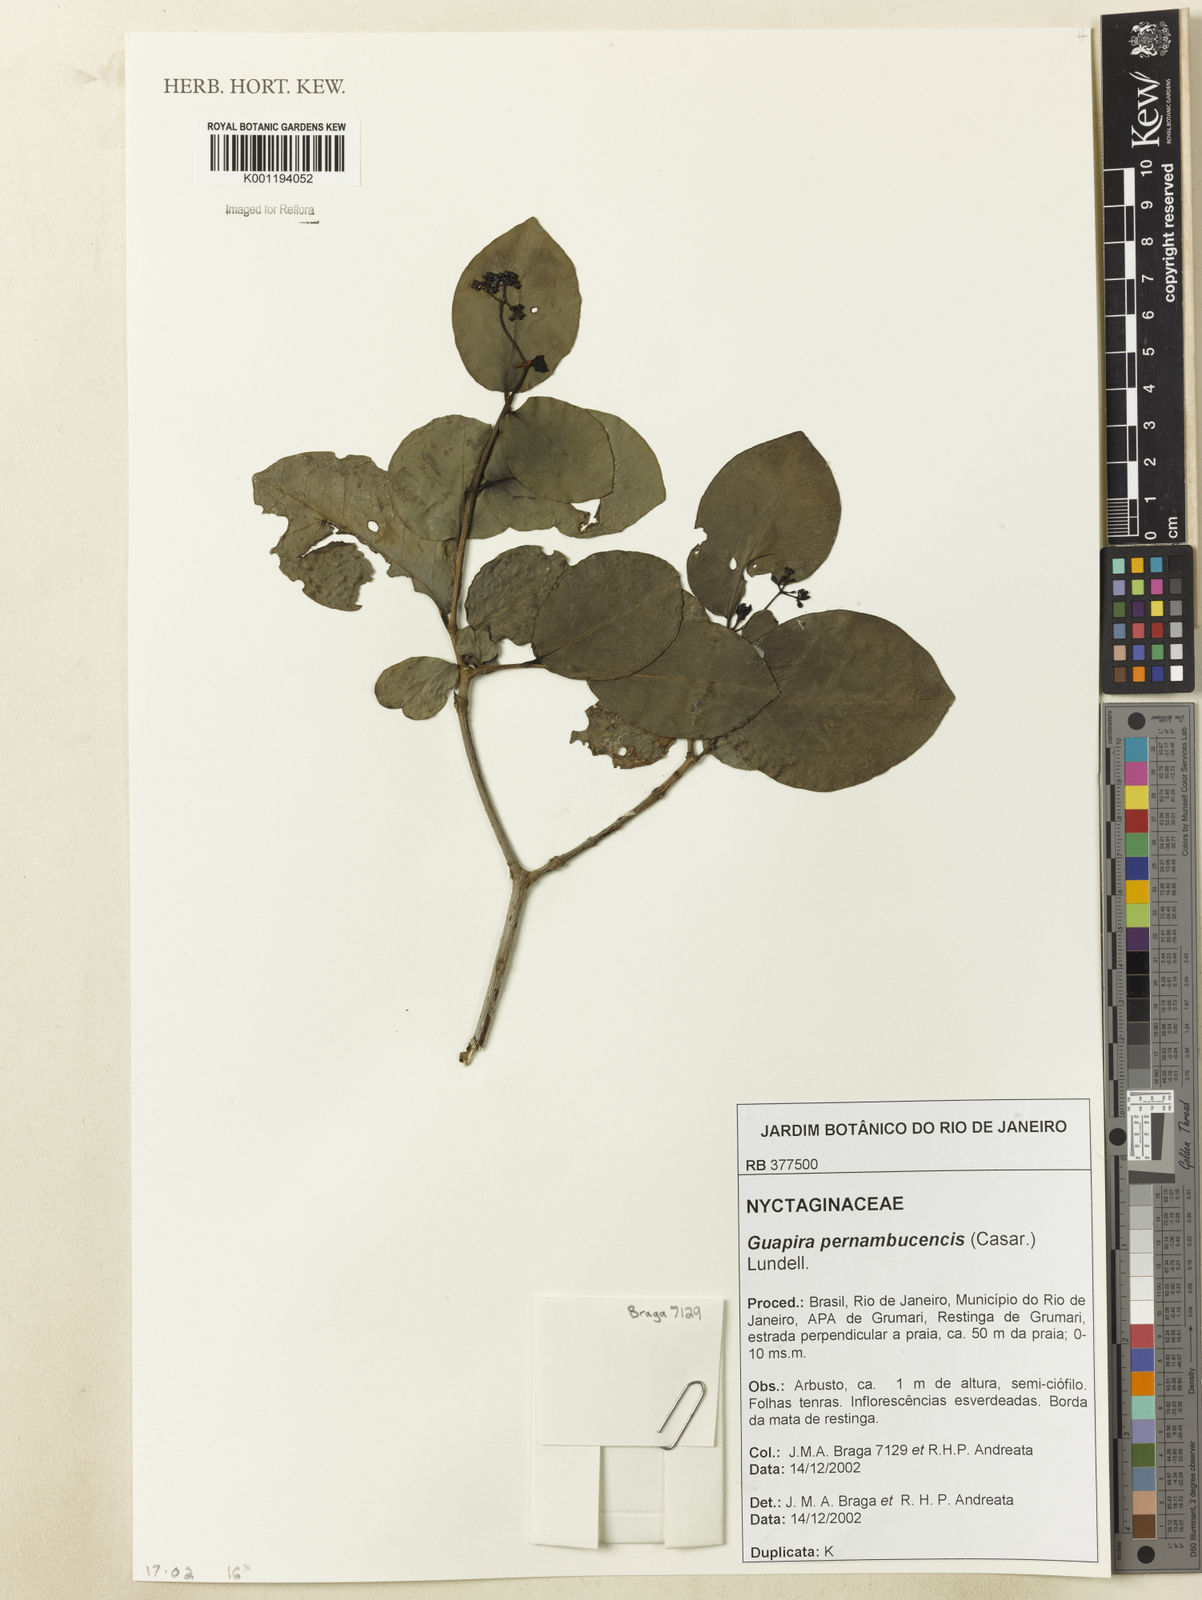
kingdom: Plantae
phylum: Tracheophyta
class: Magnoliopsida
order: Caryophyllales
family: Nyctaginaceae
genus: Guapira
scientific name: Guapira pernambucensis
